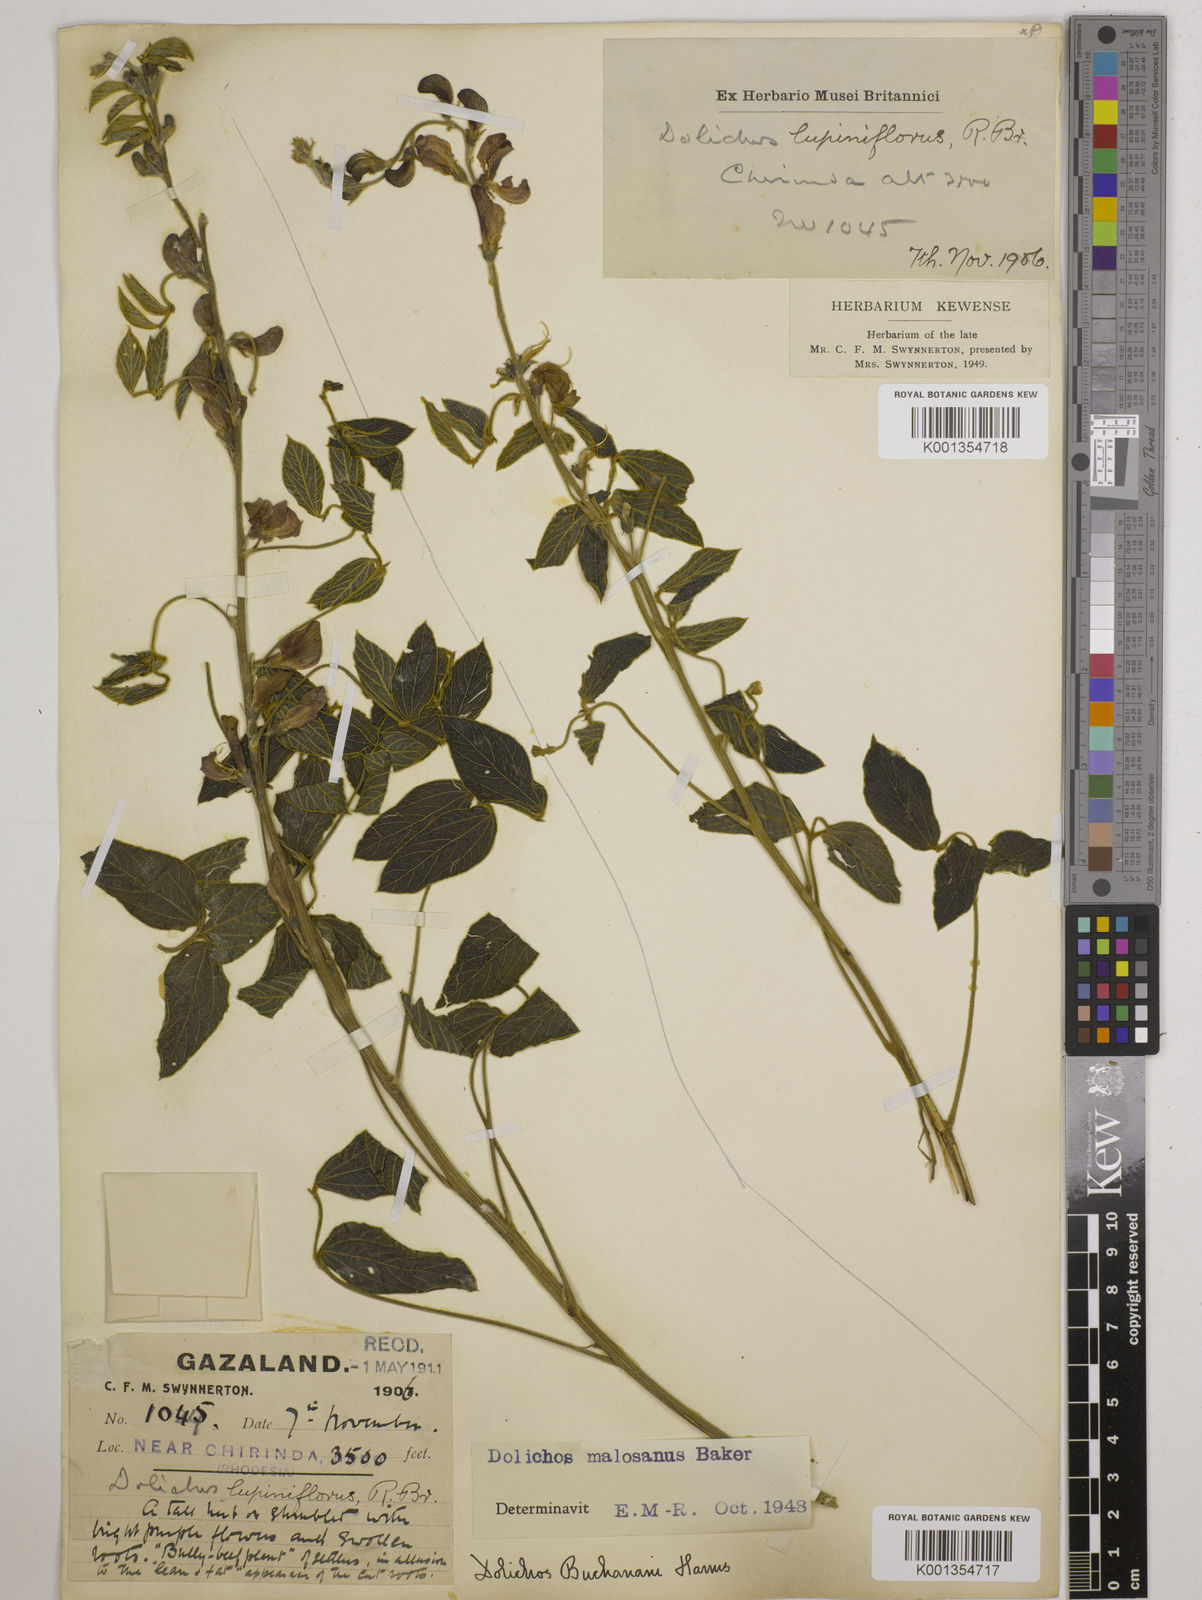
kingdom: Plantae
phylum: Tracheophyta
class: Magnoliopsida
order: Fabales
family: Fabaceae
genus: Dolichos
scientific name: Dolichos kilimandscharicus
